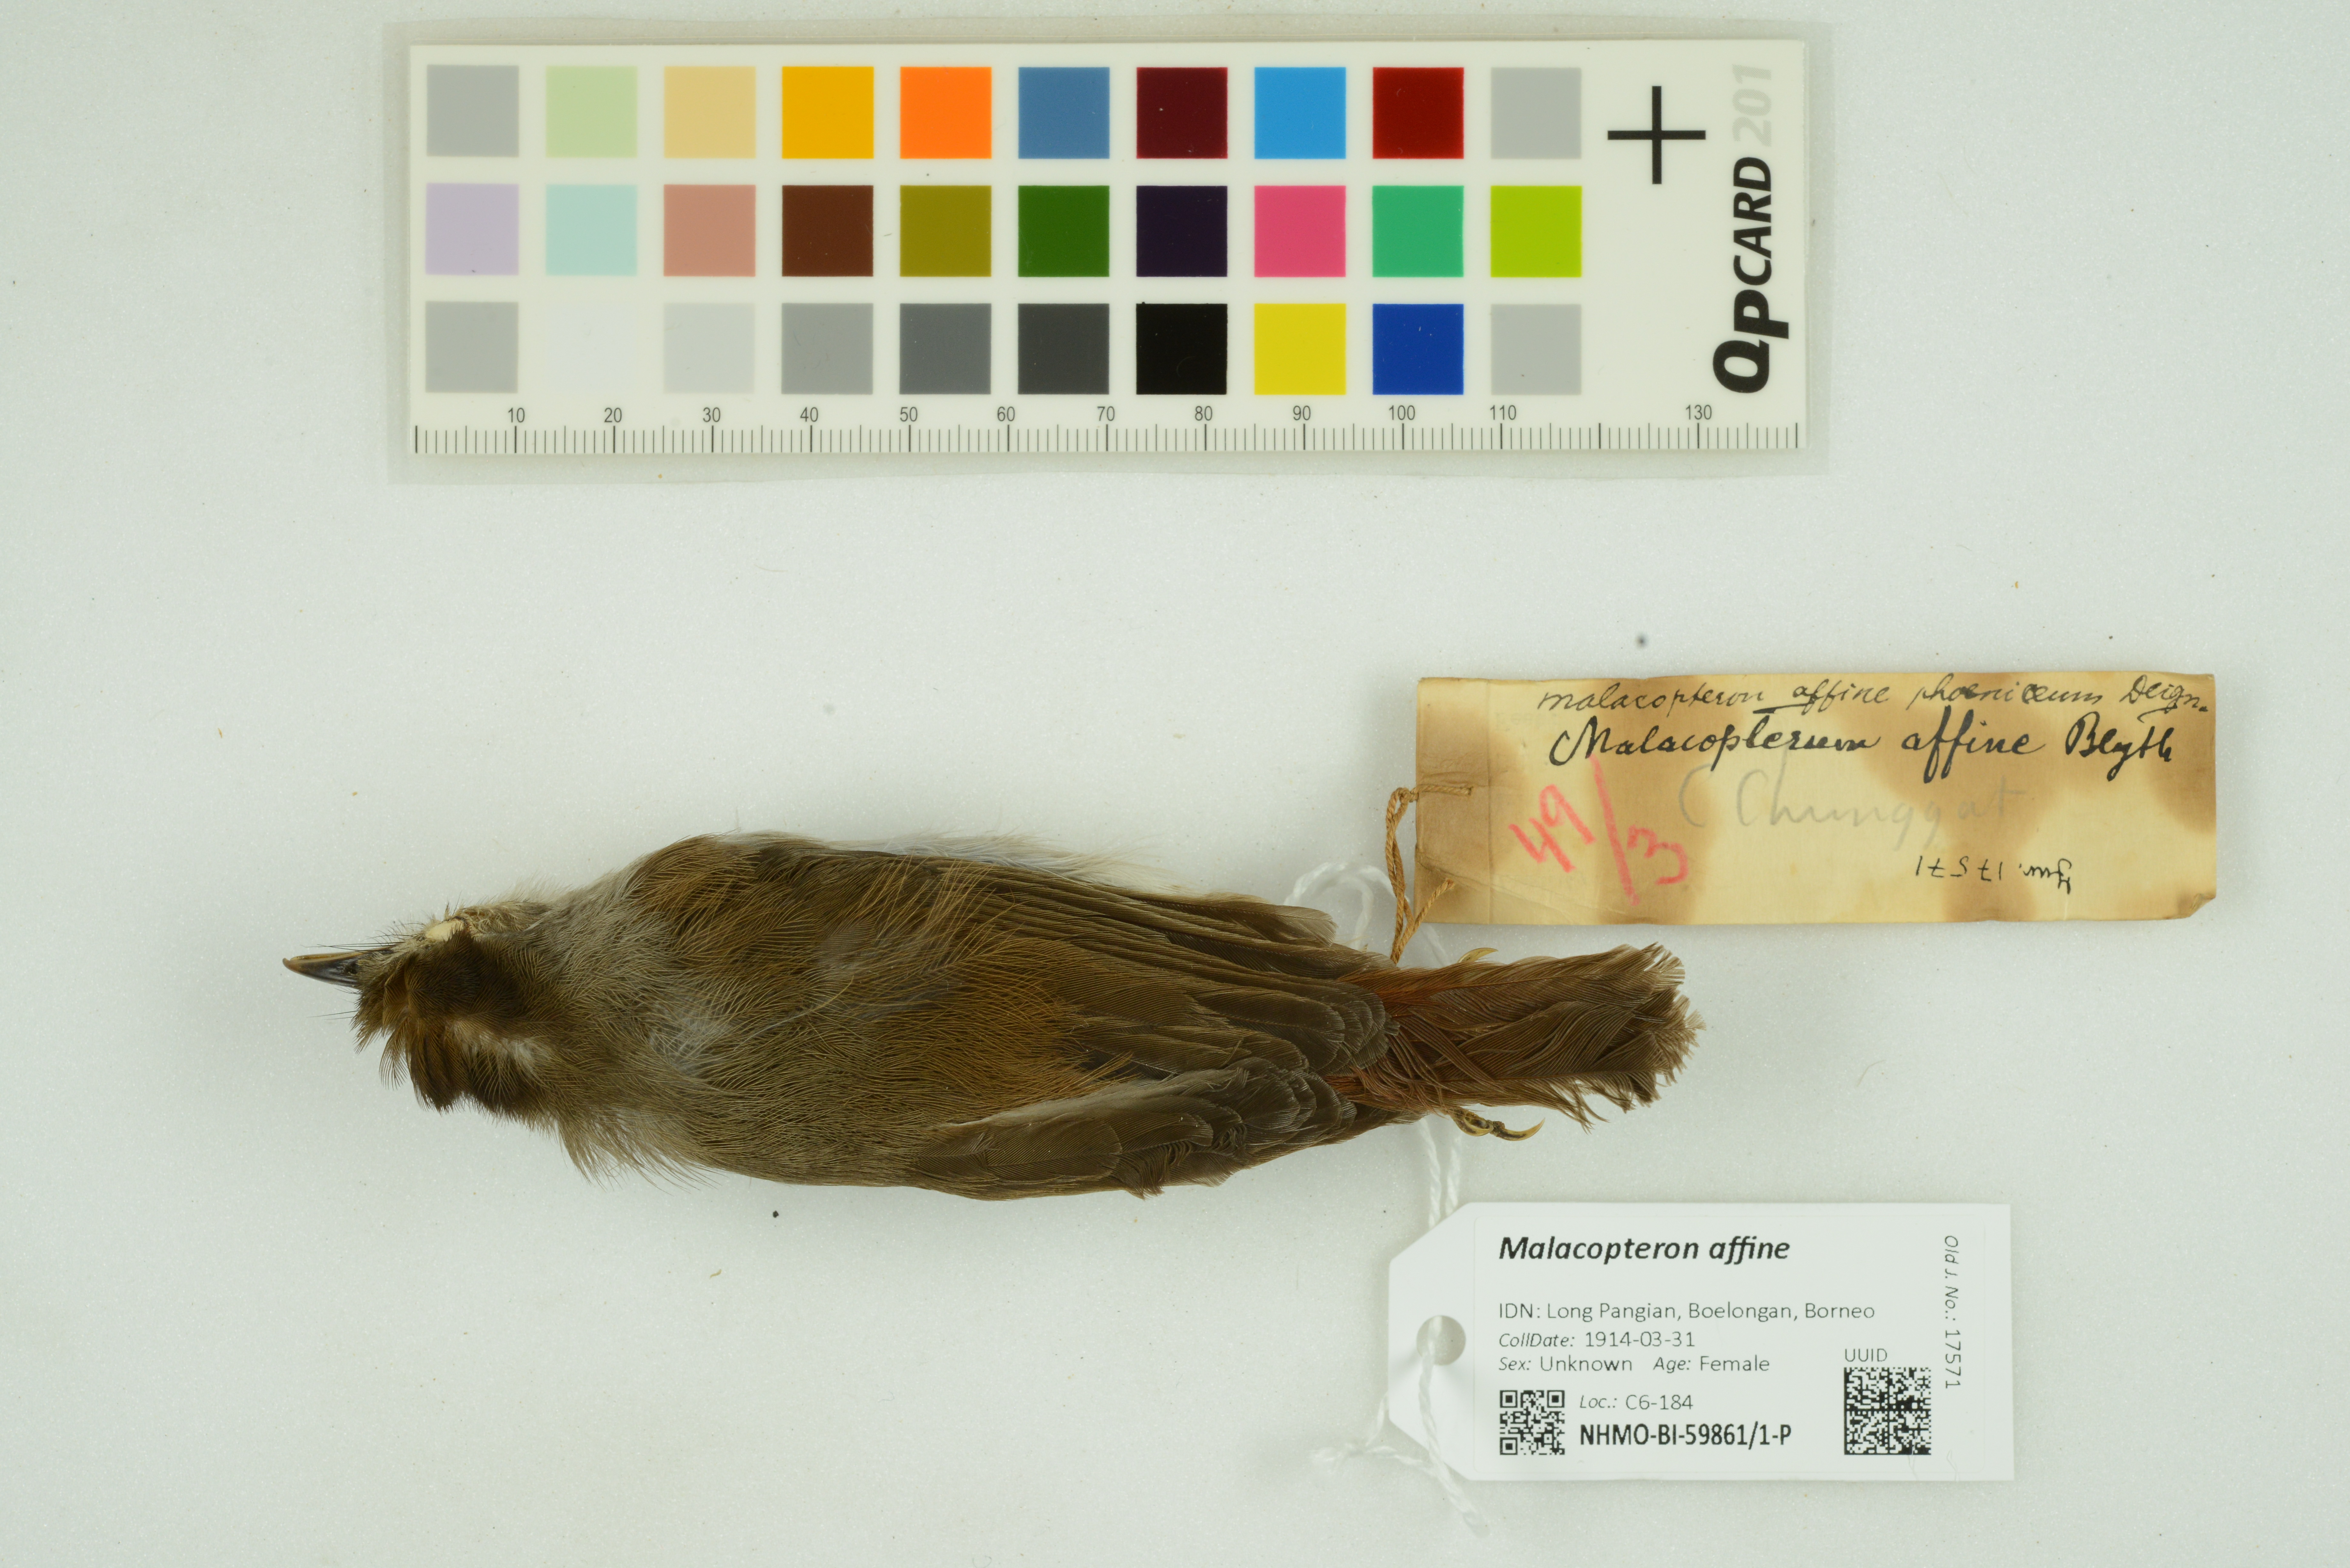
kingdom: Animalia
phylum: Chordata
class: Aves
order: Passeriformes
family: Pellorneidae
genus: Malacopteron
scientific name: Malacopteron affine
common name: Sooty-capped babbler
